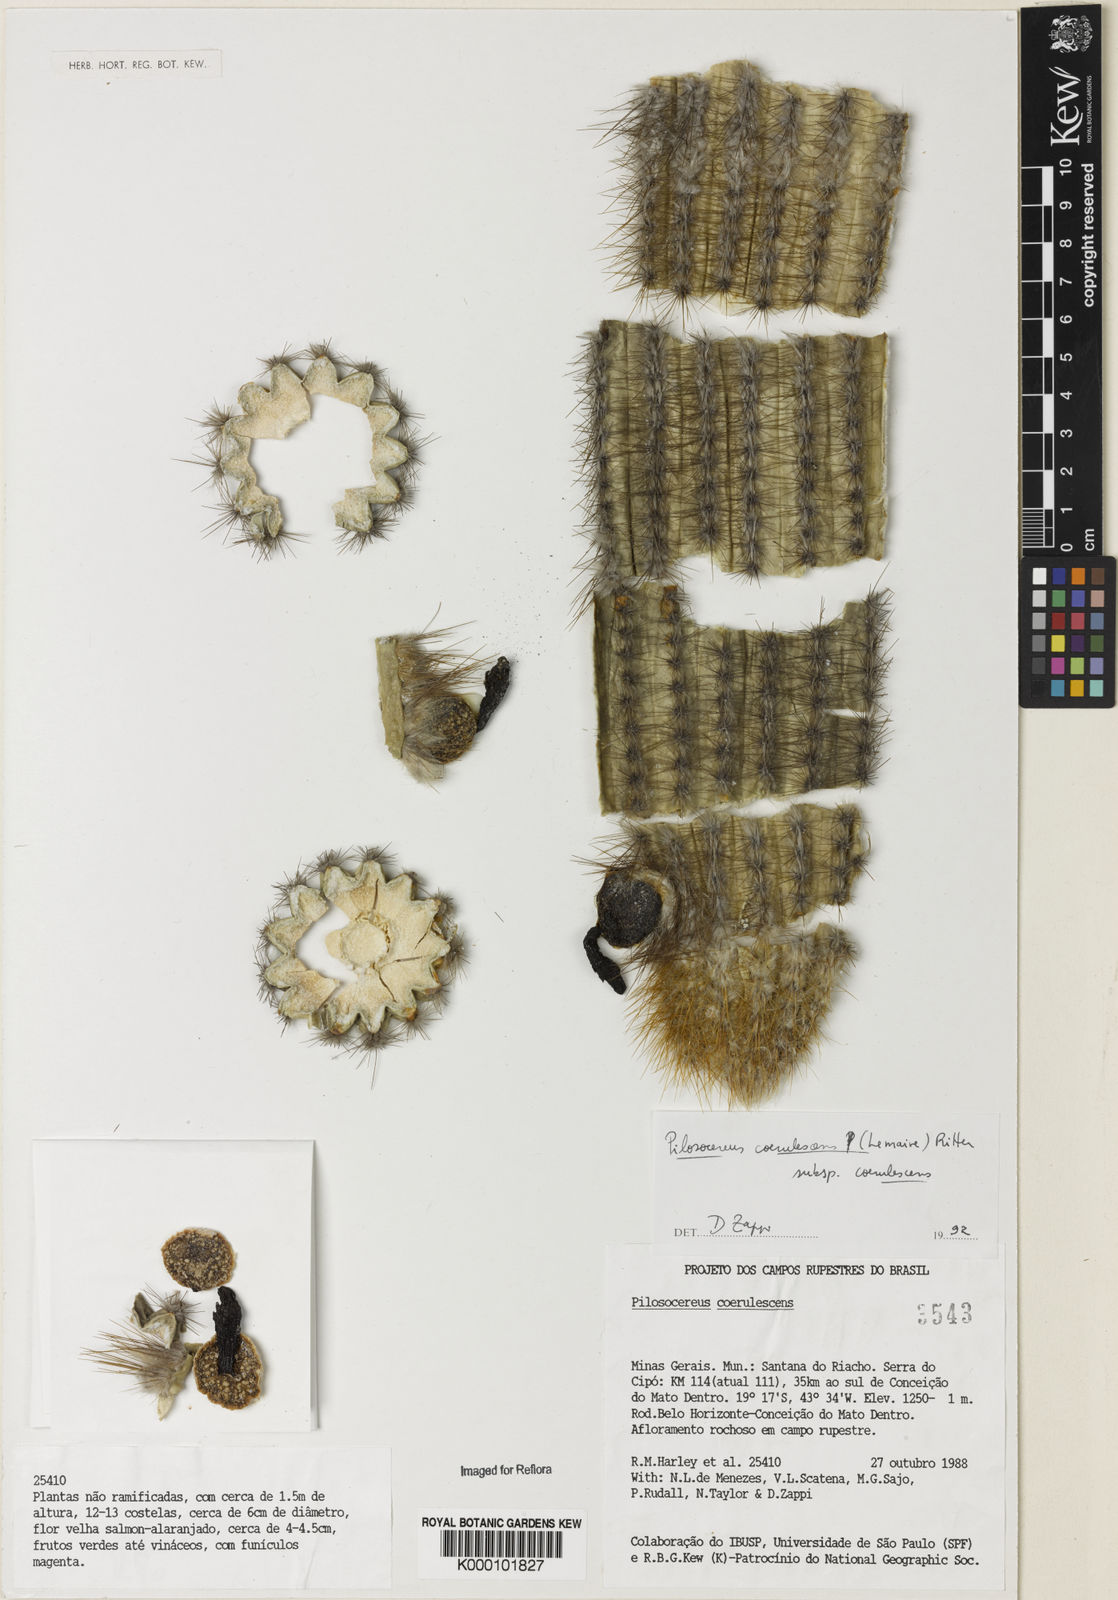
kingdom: Plantae
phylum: Tracheophyta
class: Magnoliopsida
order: Caryophyllales
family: Cactaceae
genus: Pilosocereus
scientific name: Pilosocereus aurisetus
